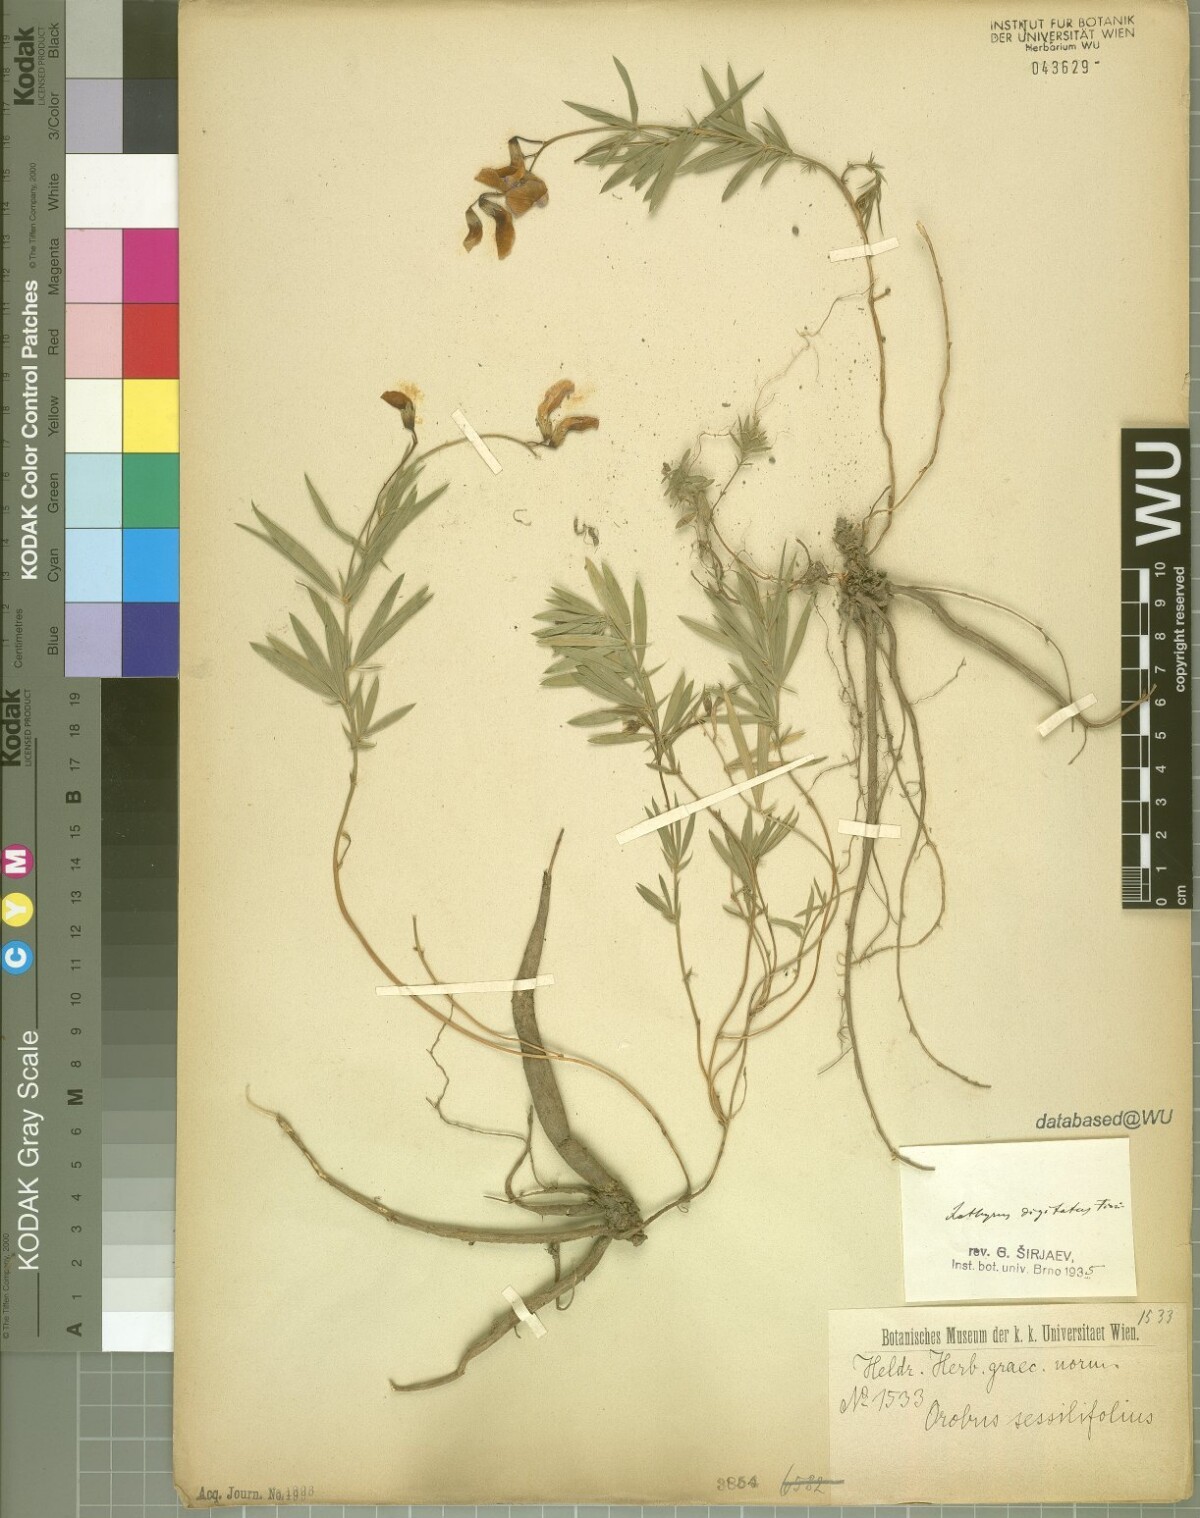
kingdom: Plantae
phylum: Tracheophyta
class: Magnoliopsida
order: Fabales
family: Fabaceae
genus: Lathyrus
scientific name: Lathyrus digitatus
